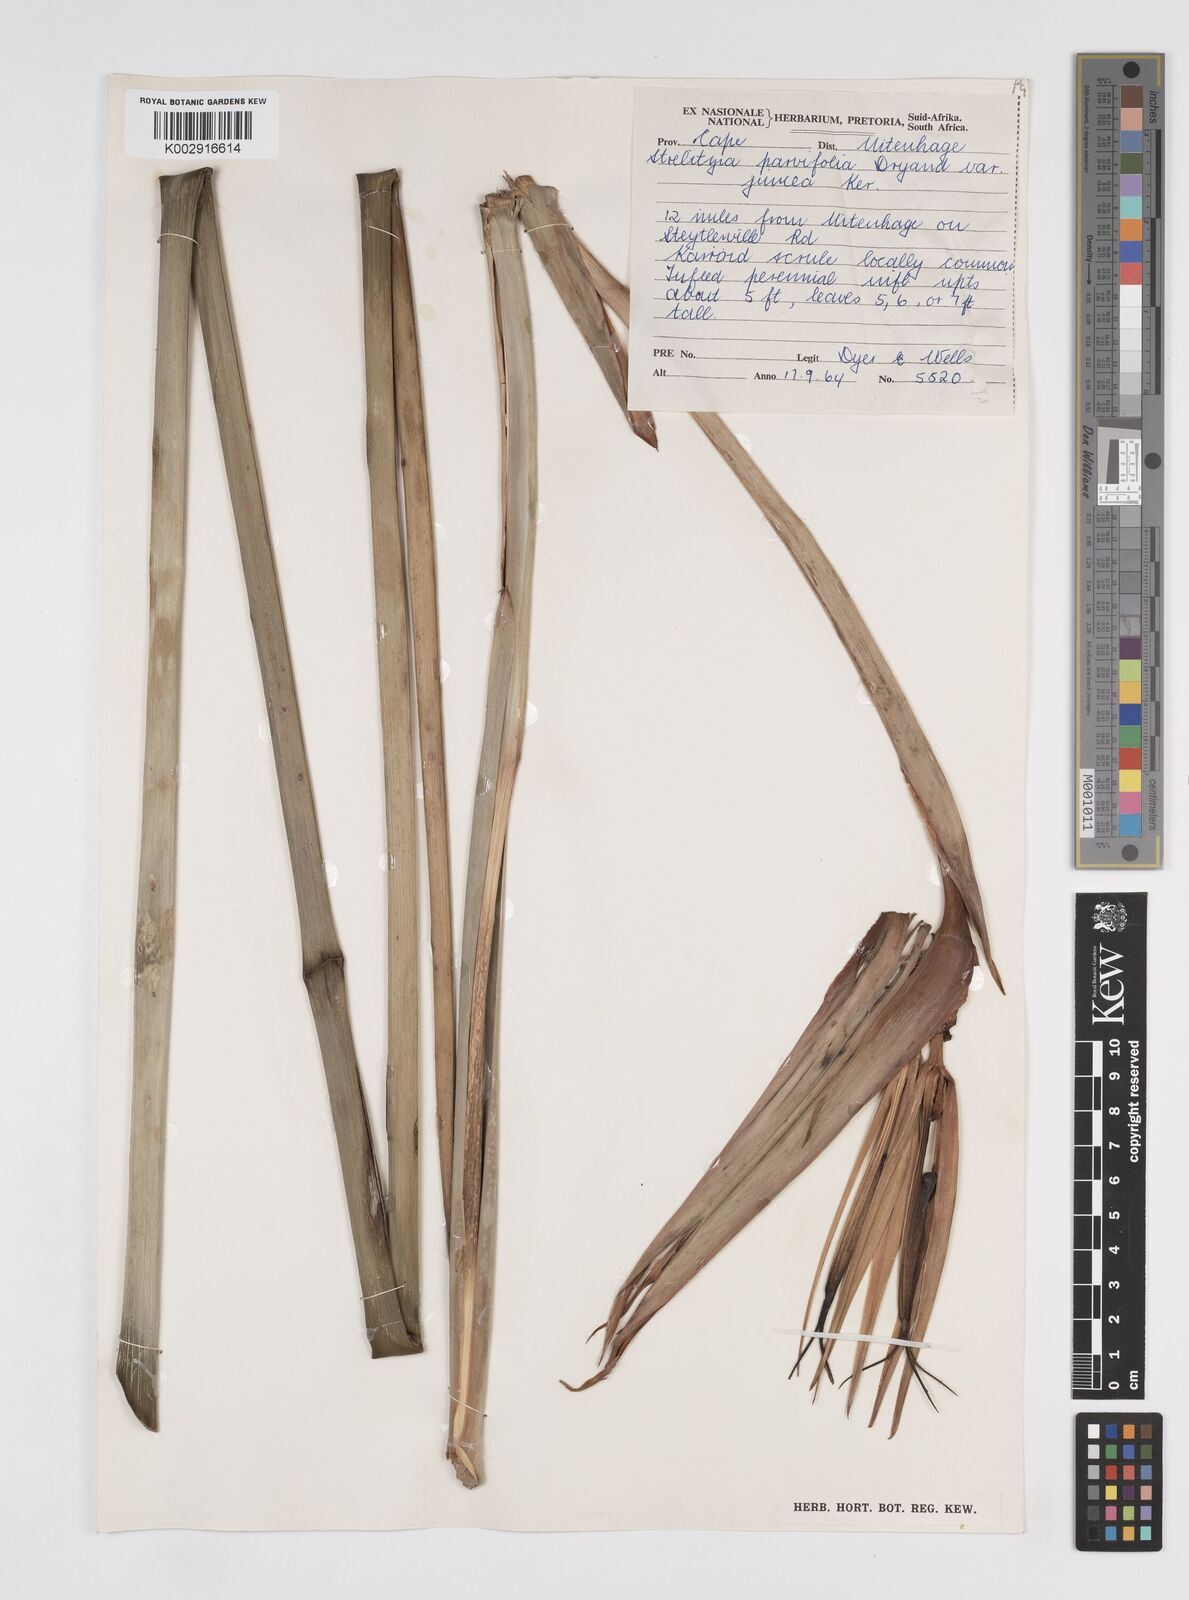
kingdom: Plantae
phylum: Tracheophyta
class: Liliopsida
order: Zingiberales
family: Strelitziaceae
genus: Strelitzia
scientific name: Strelitzia juncea
